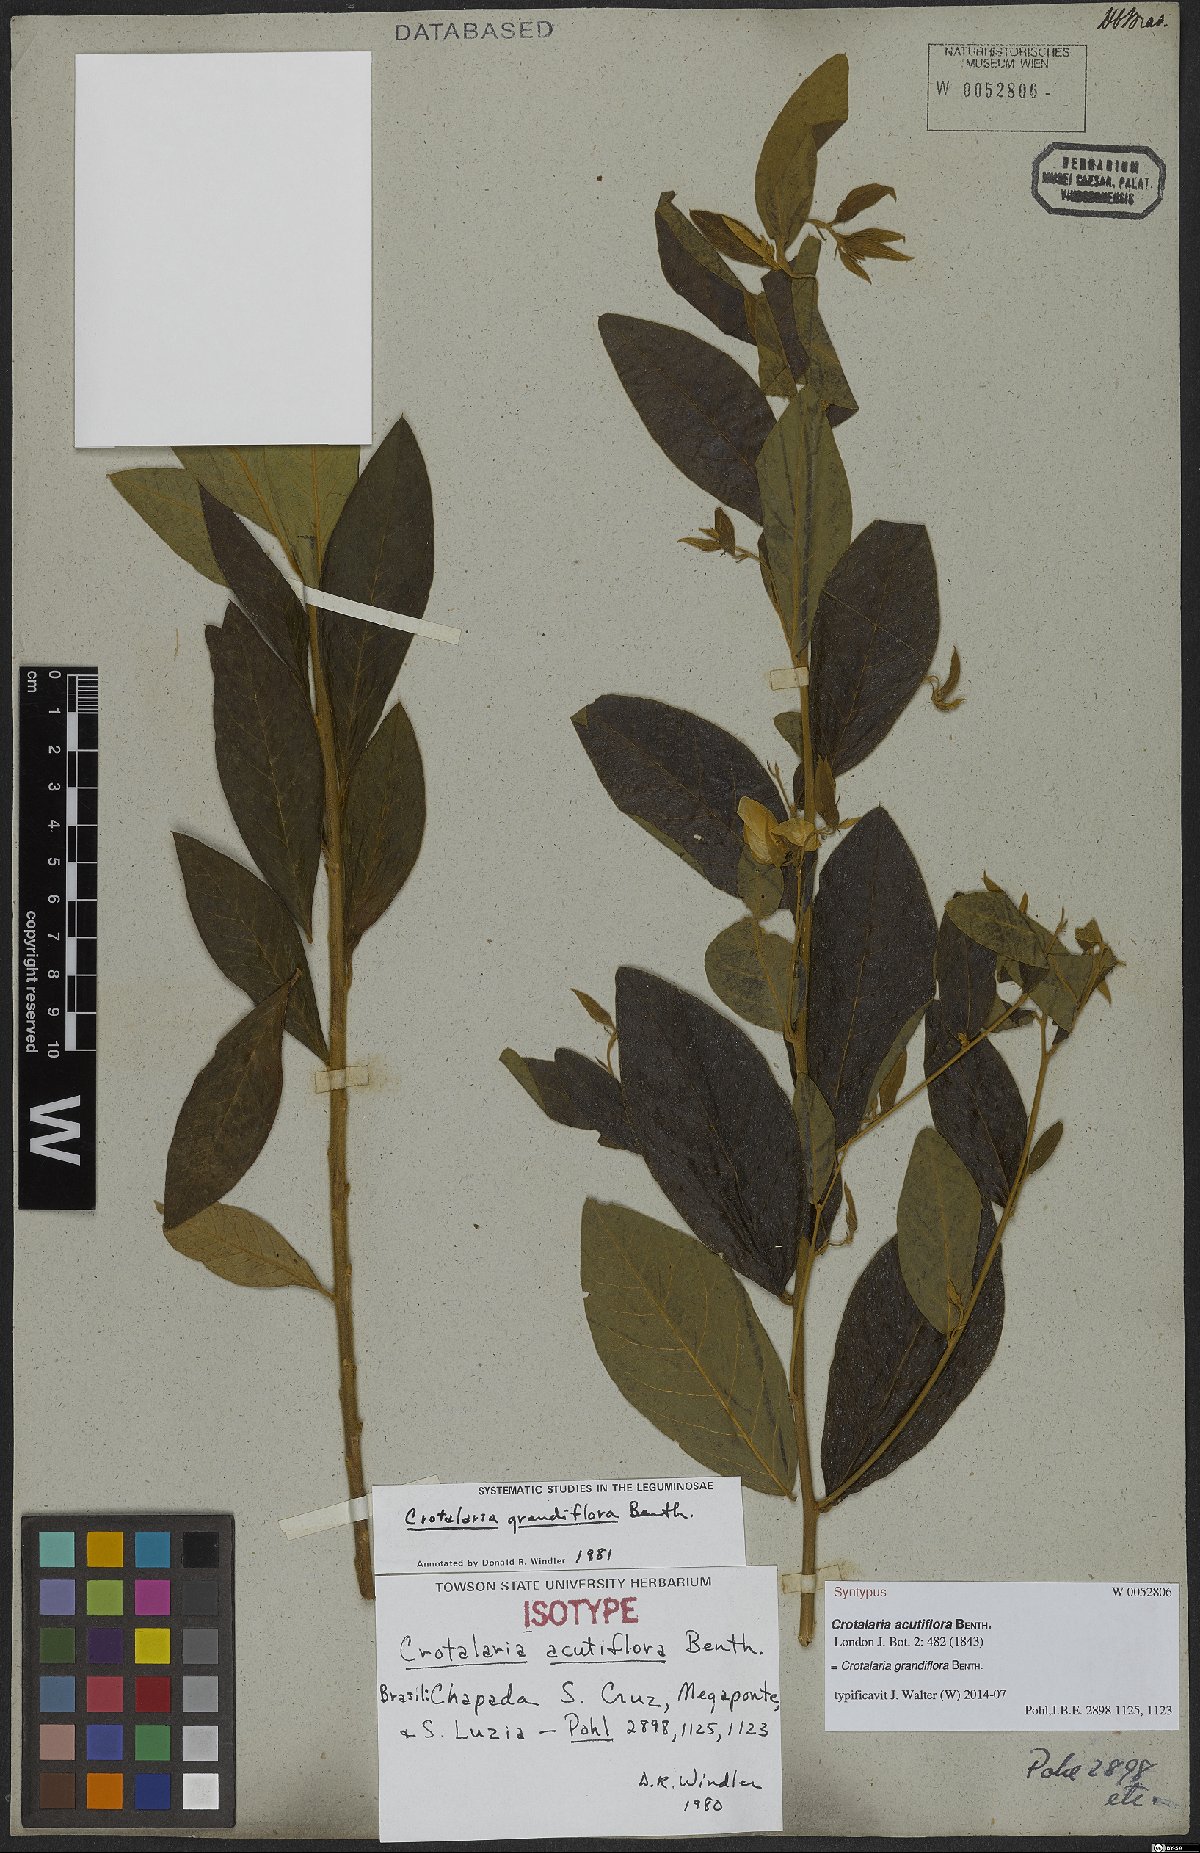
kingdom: Plantae
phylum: Tracheophyta
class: Magnoliopsida
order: Fabales
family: Fabaceae
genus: Crotalaria
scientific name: Crotalaria grandiflora
